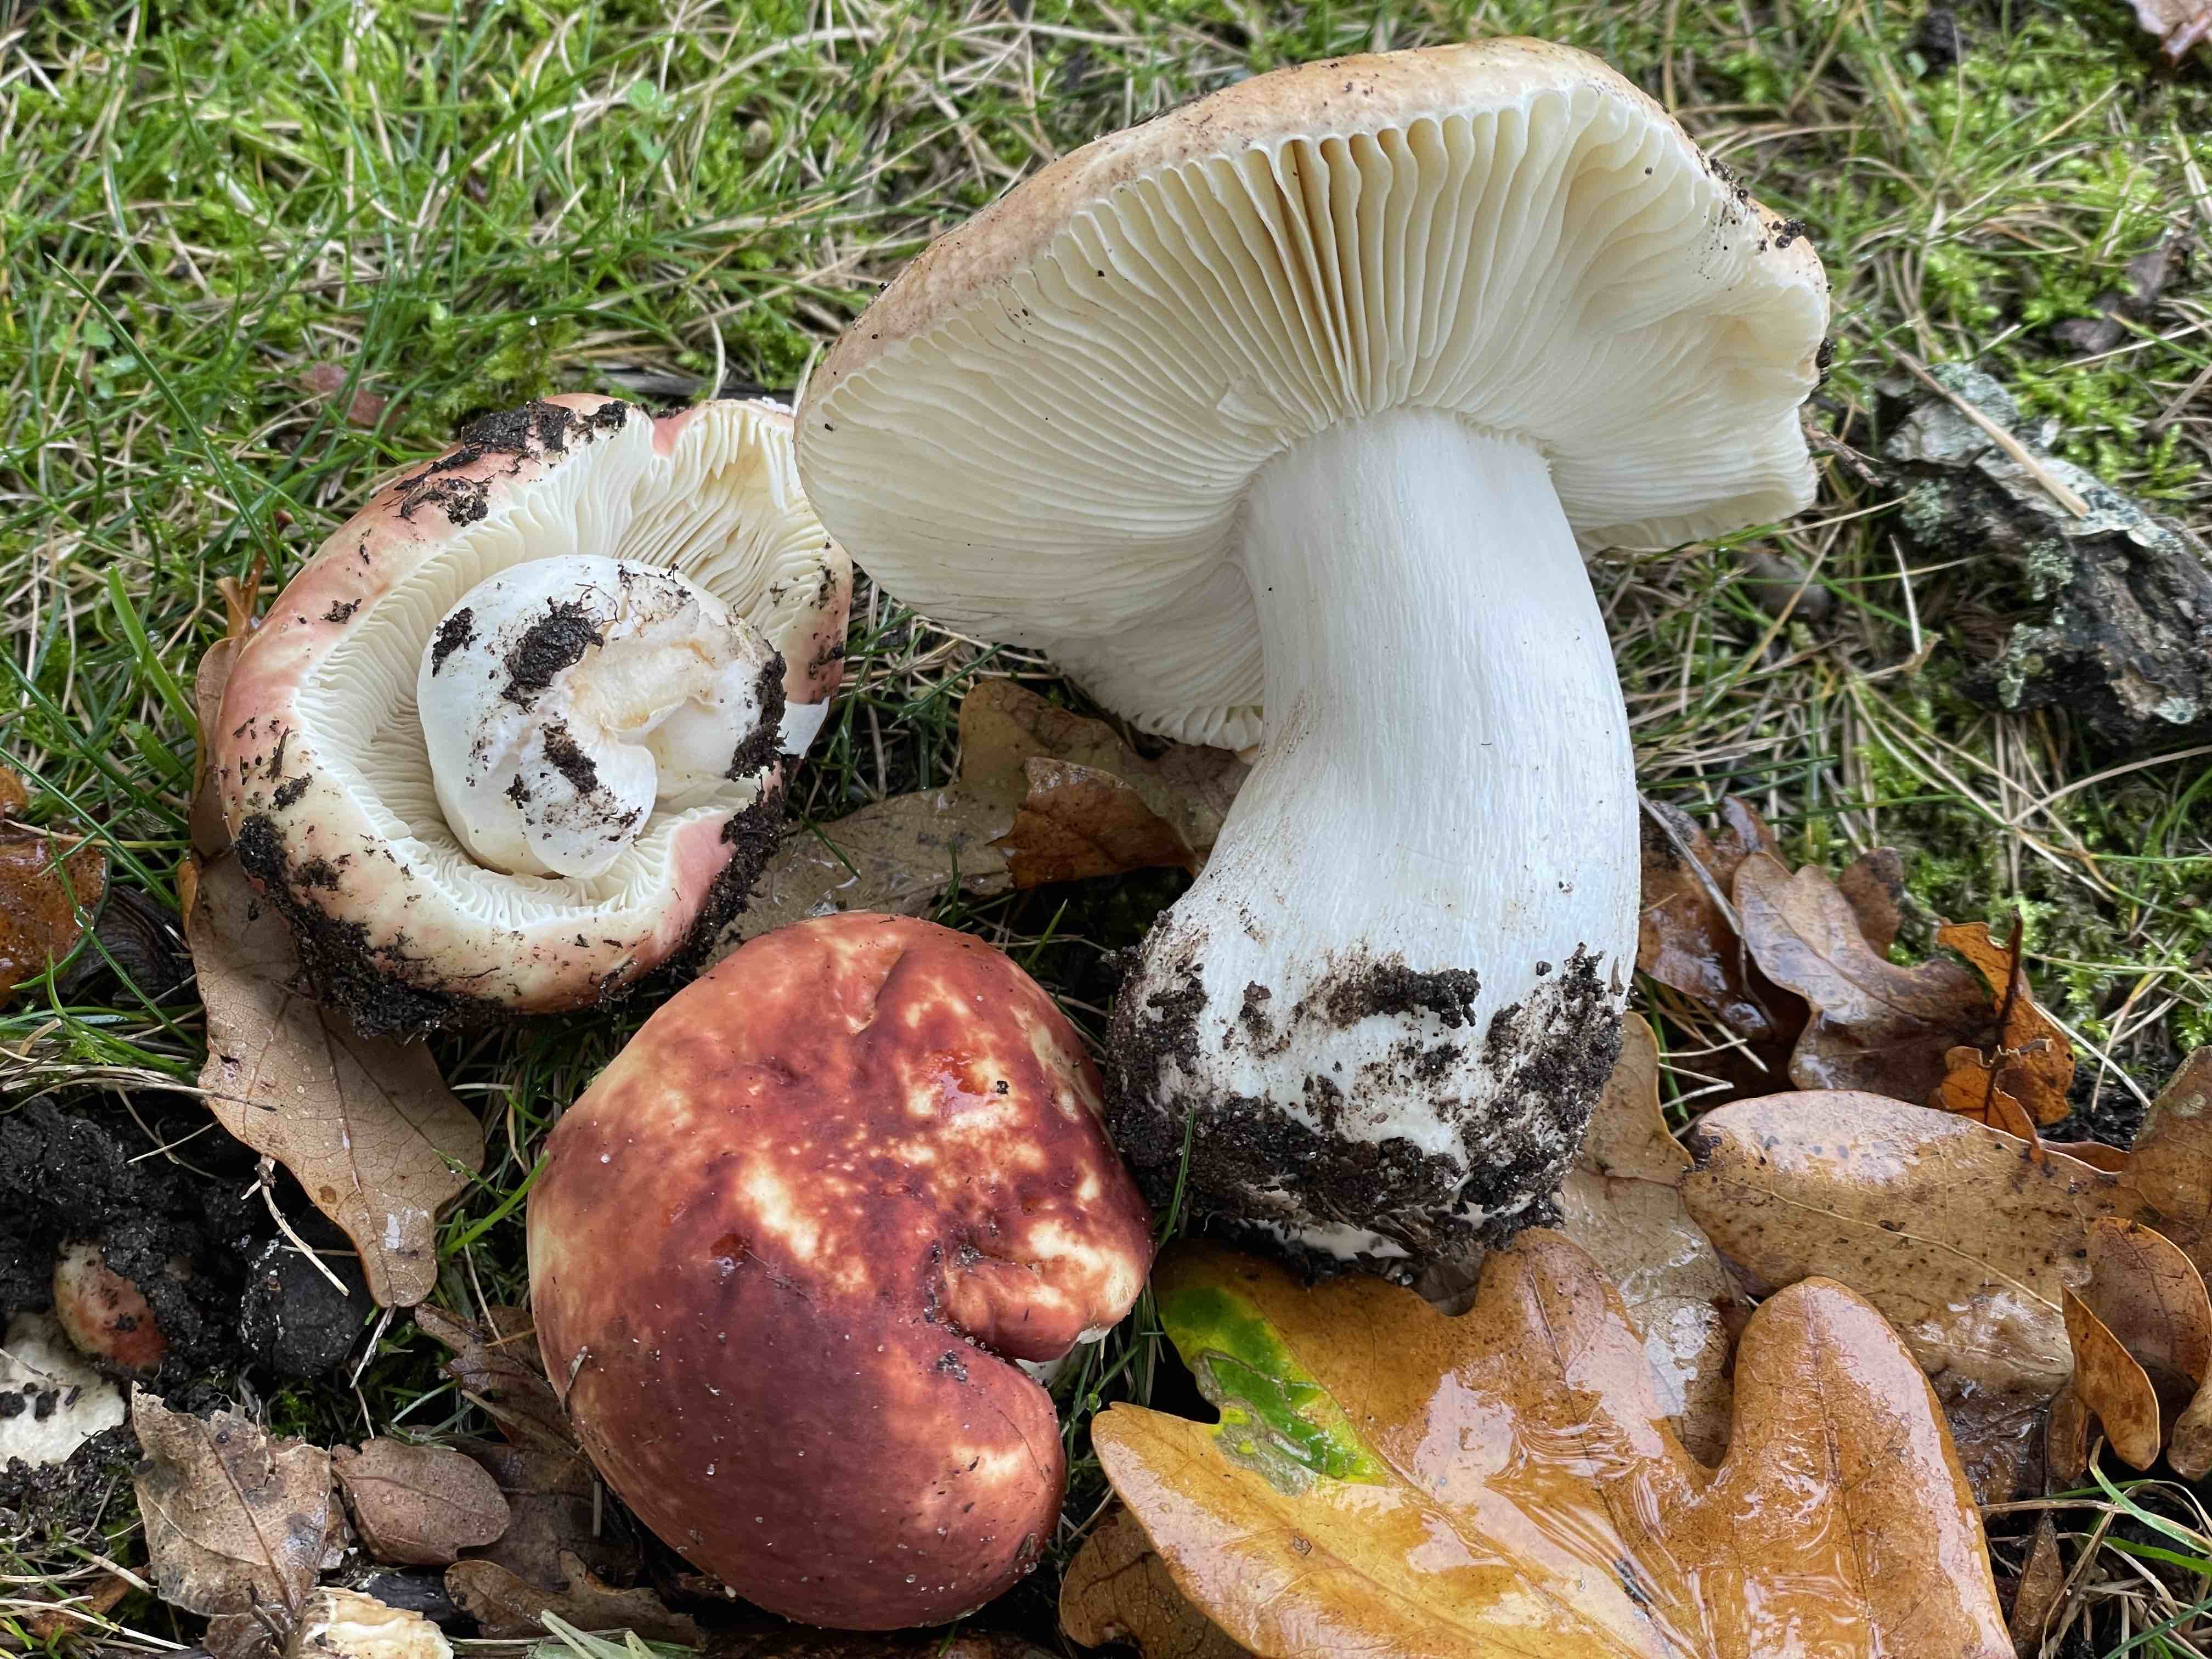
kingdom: Fungi
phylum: Basidiomycota
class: Agaricomycetes
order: Russulales
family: Russulaceae
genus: Russula
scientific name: Russula graveolens
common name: bugtet skørhat
